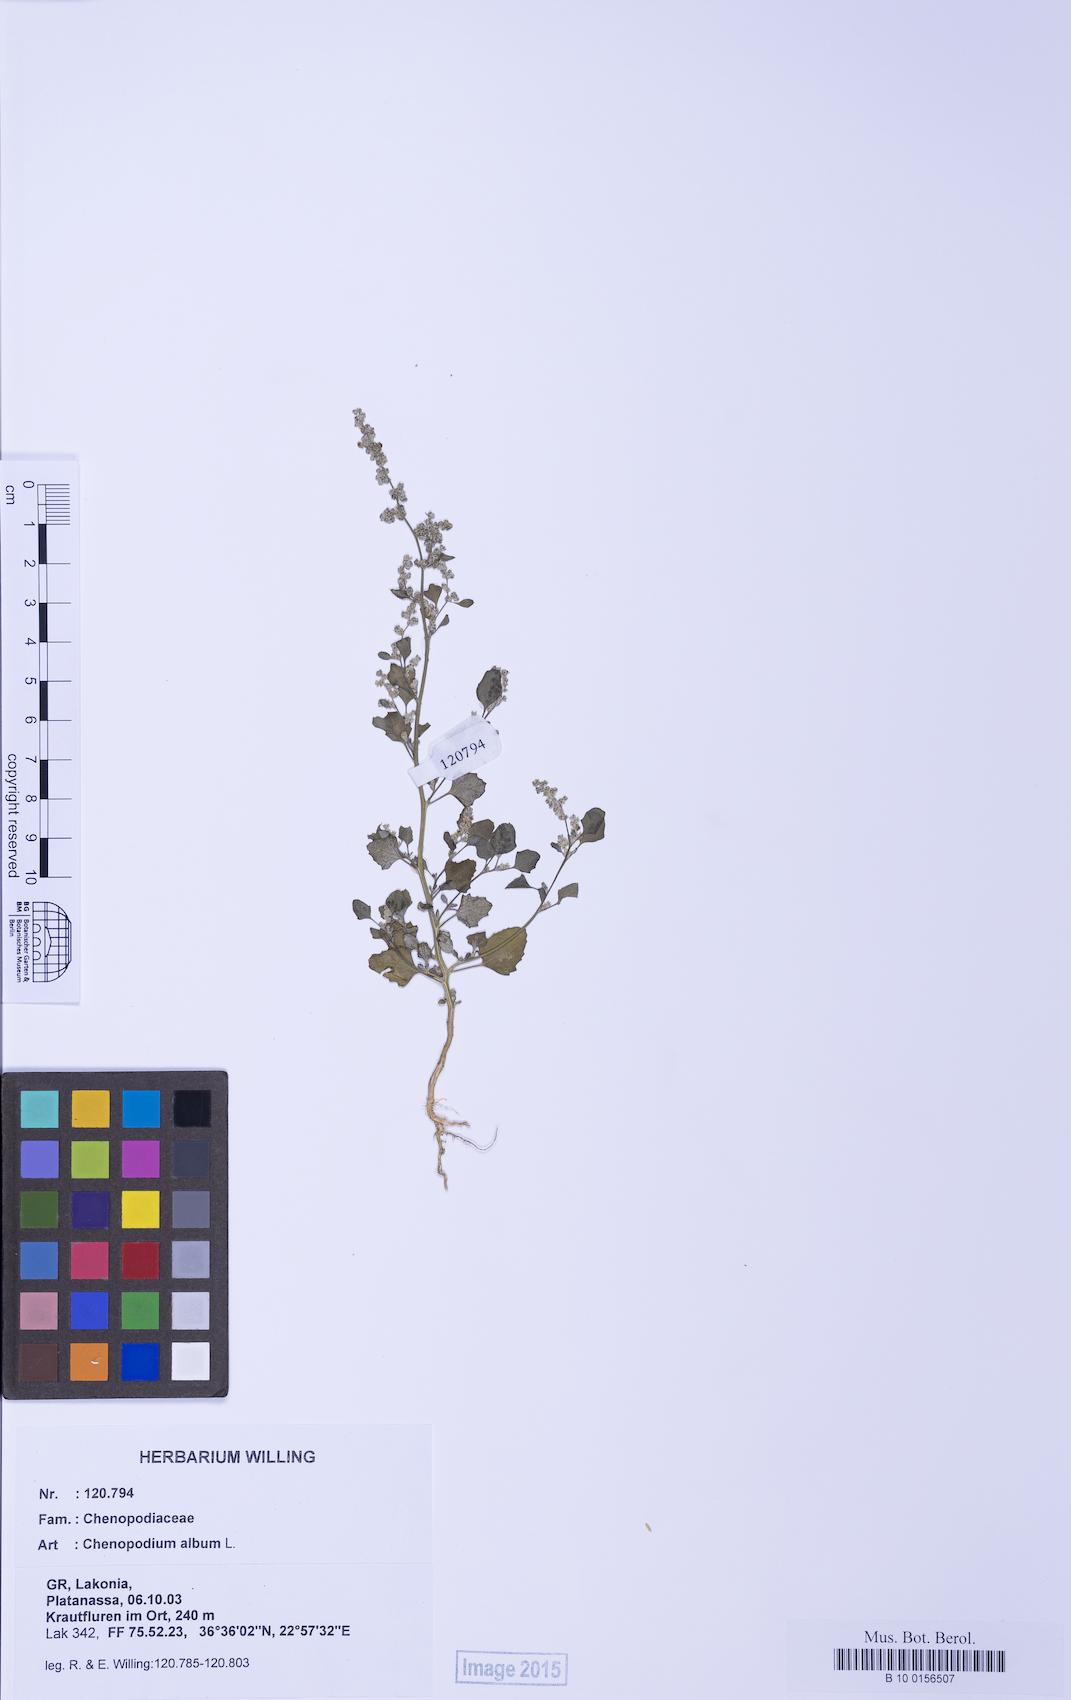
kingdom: Plantae
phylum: Tracheophyta
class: Magnoliopsida
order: Caryophyllales
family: Amaranthaceae
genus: Chenopodium
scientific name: Chenopodium album
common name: Fat-hen
